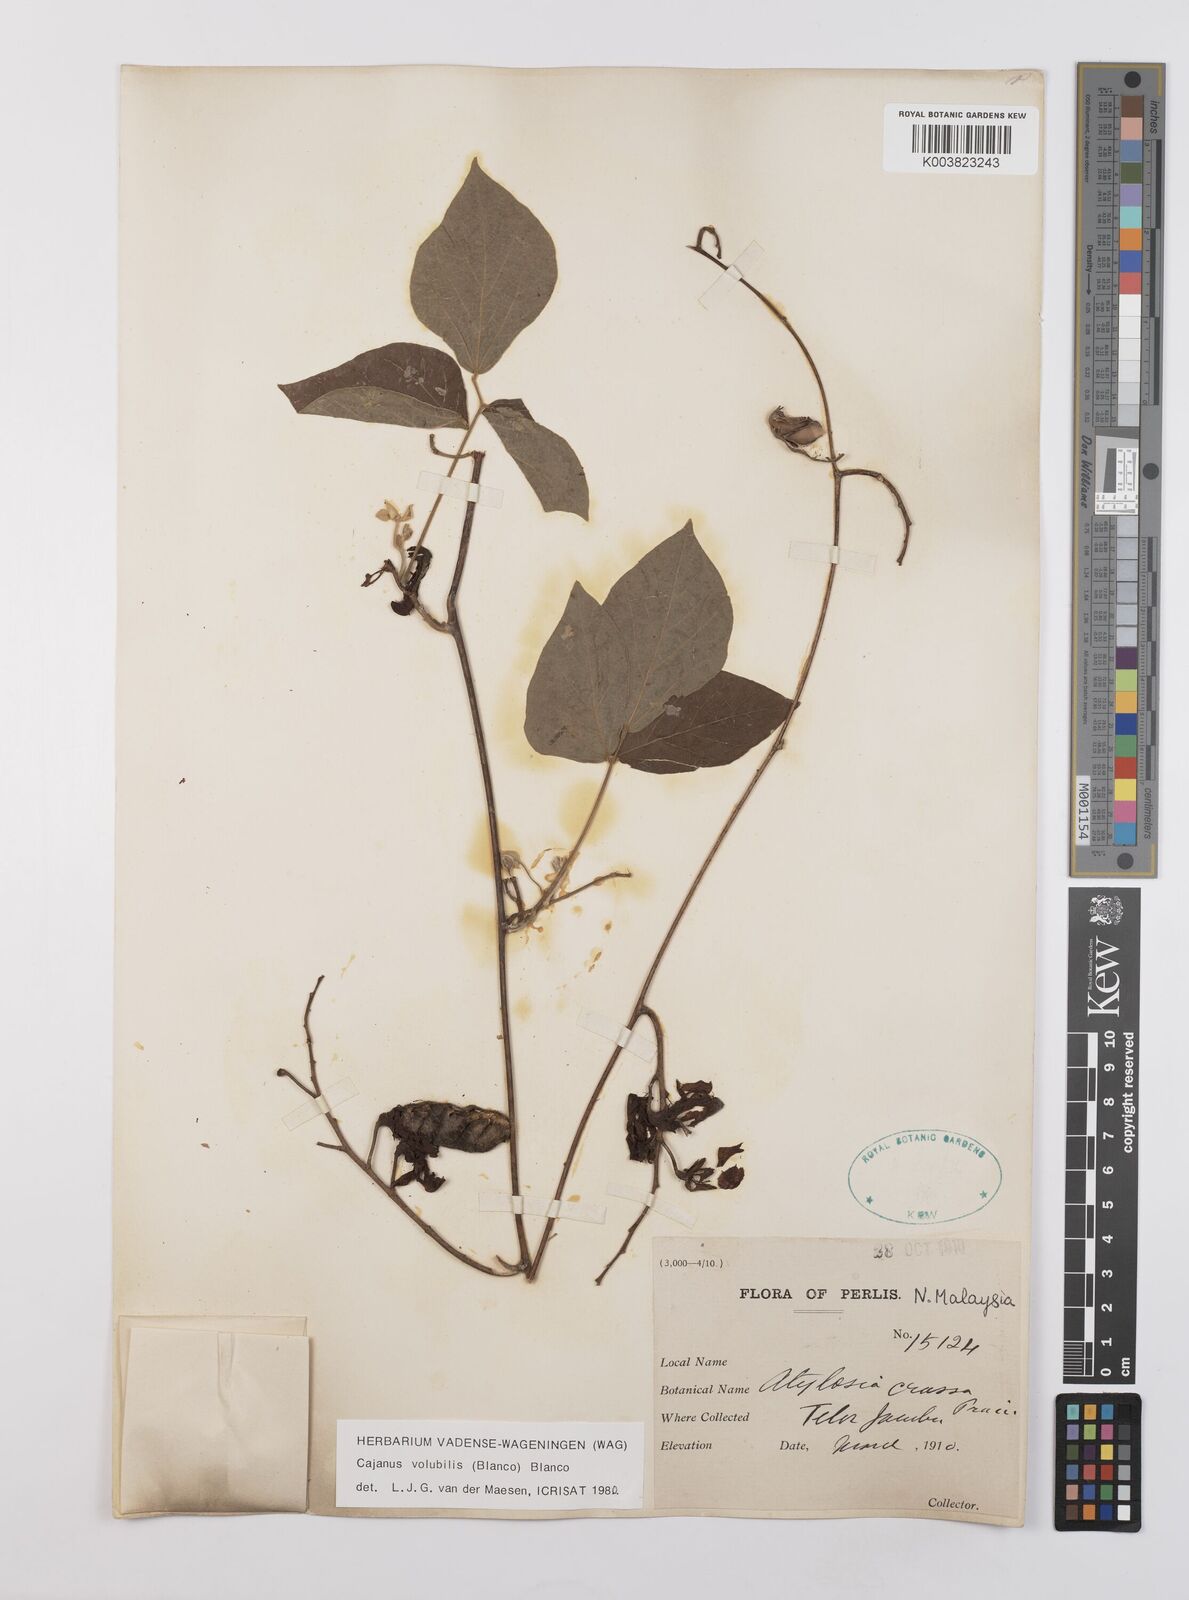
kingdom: Plantae
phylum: Tracheophyta
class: Magnoliopsida
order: Fabales
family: Fabaceae
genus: Cajanus
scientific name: Cajanus volubilis
